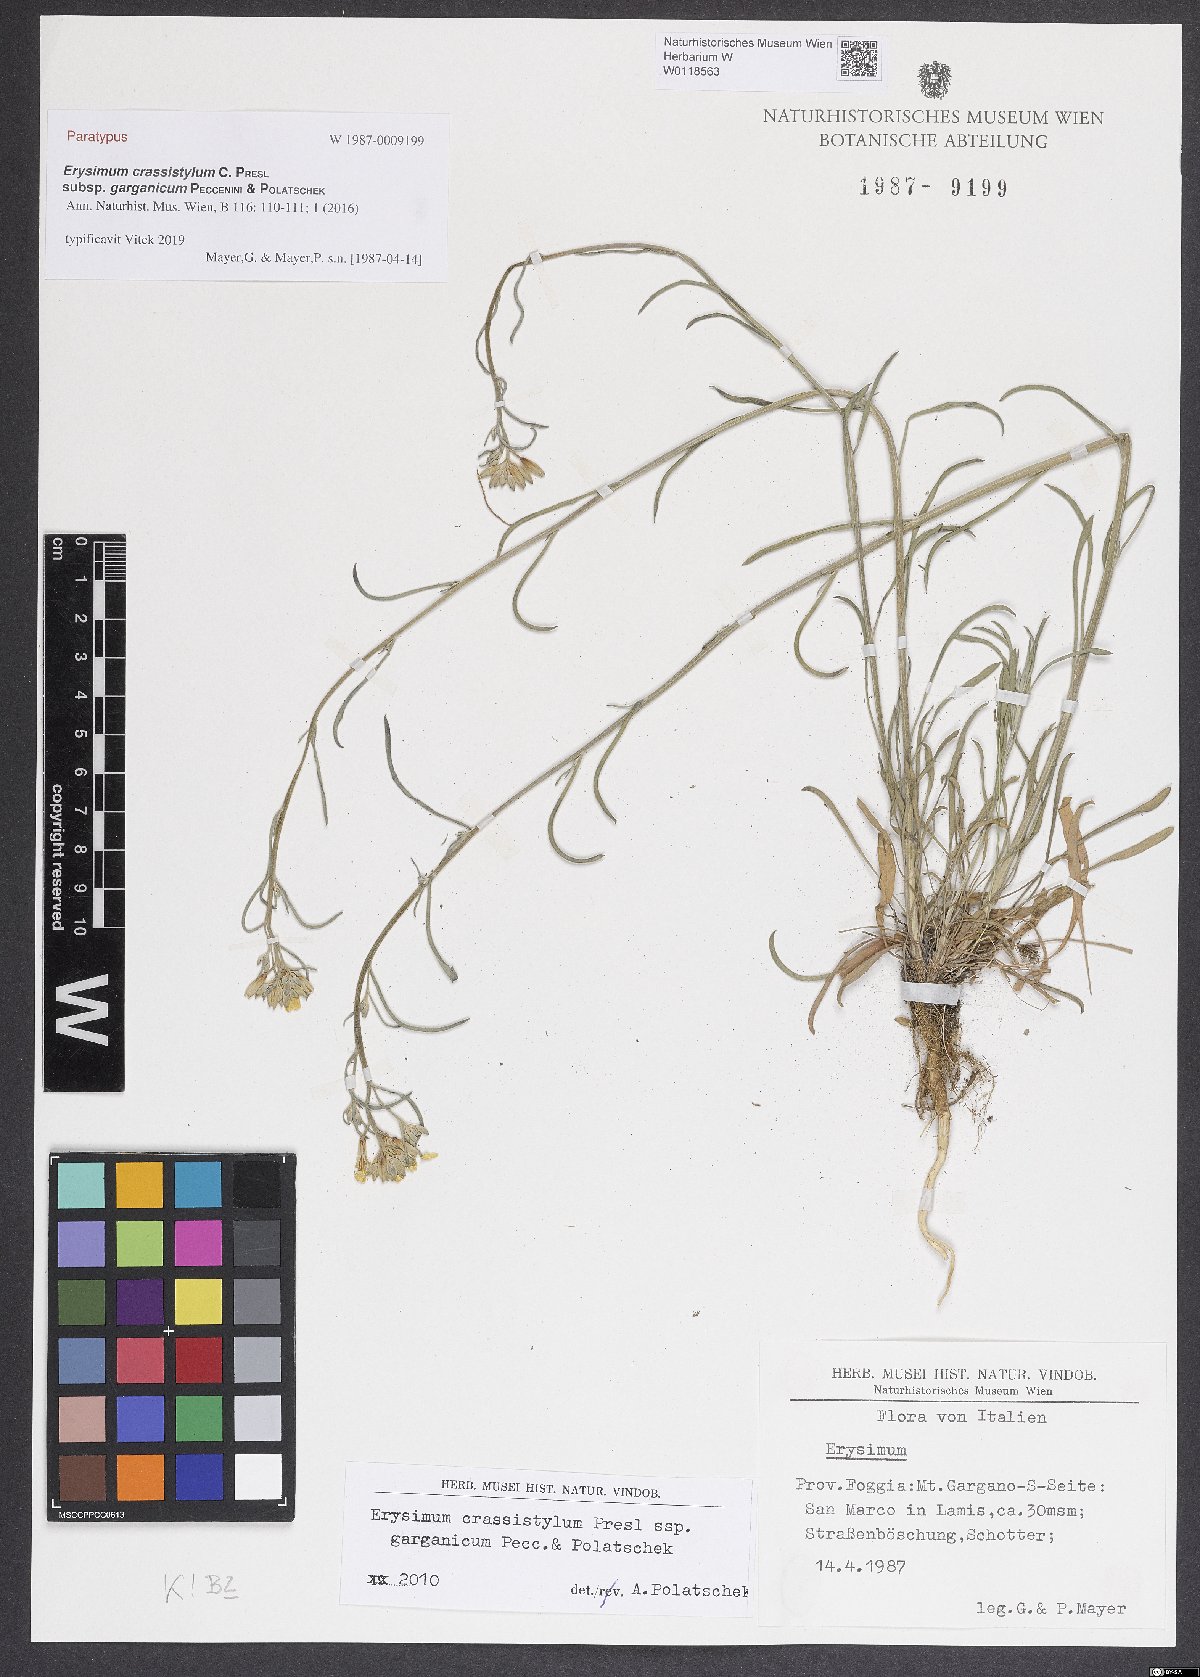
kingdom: Plantae
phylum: Tracheophyta
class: Magnoliopsida
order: Brassicales
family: Brassicaceae
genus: Erysimum
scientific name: Erysimum crassistylum
